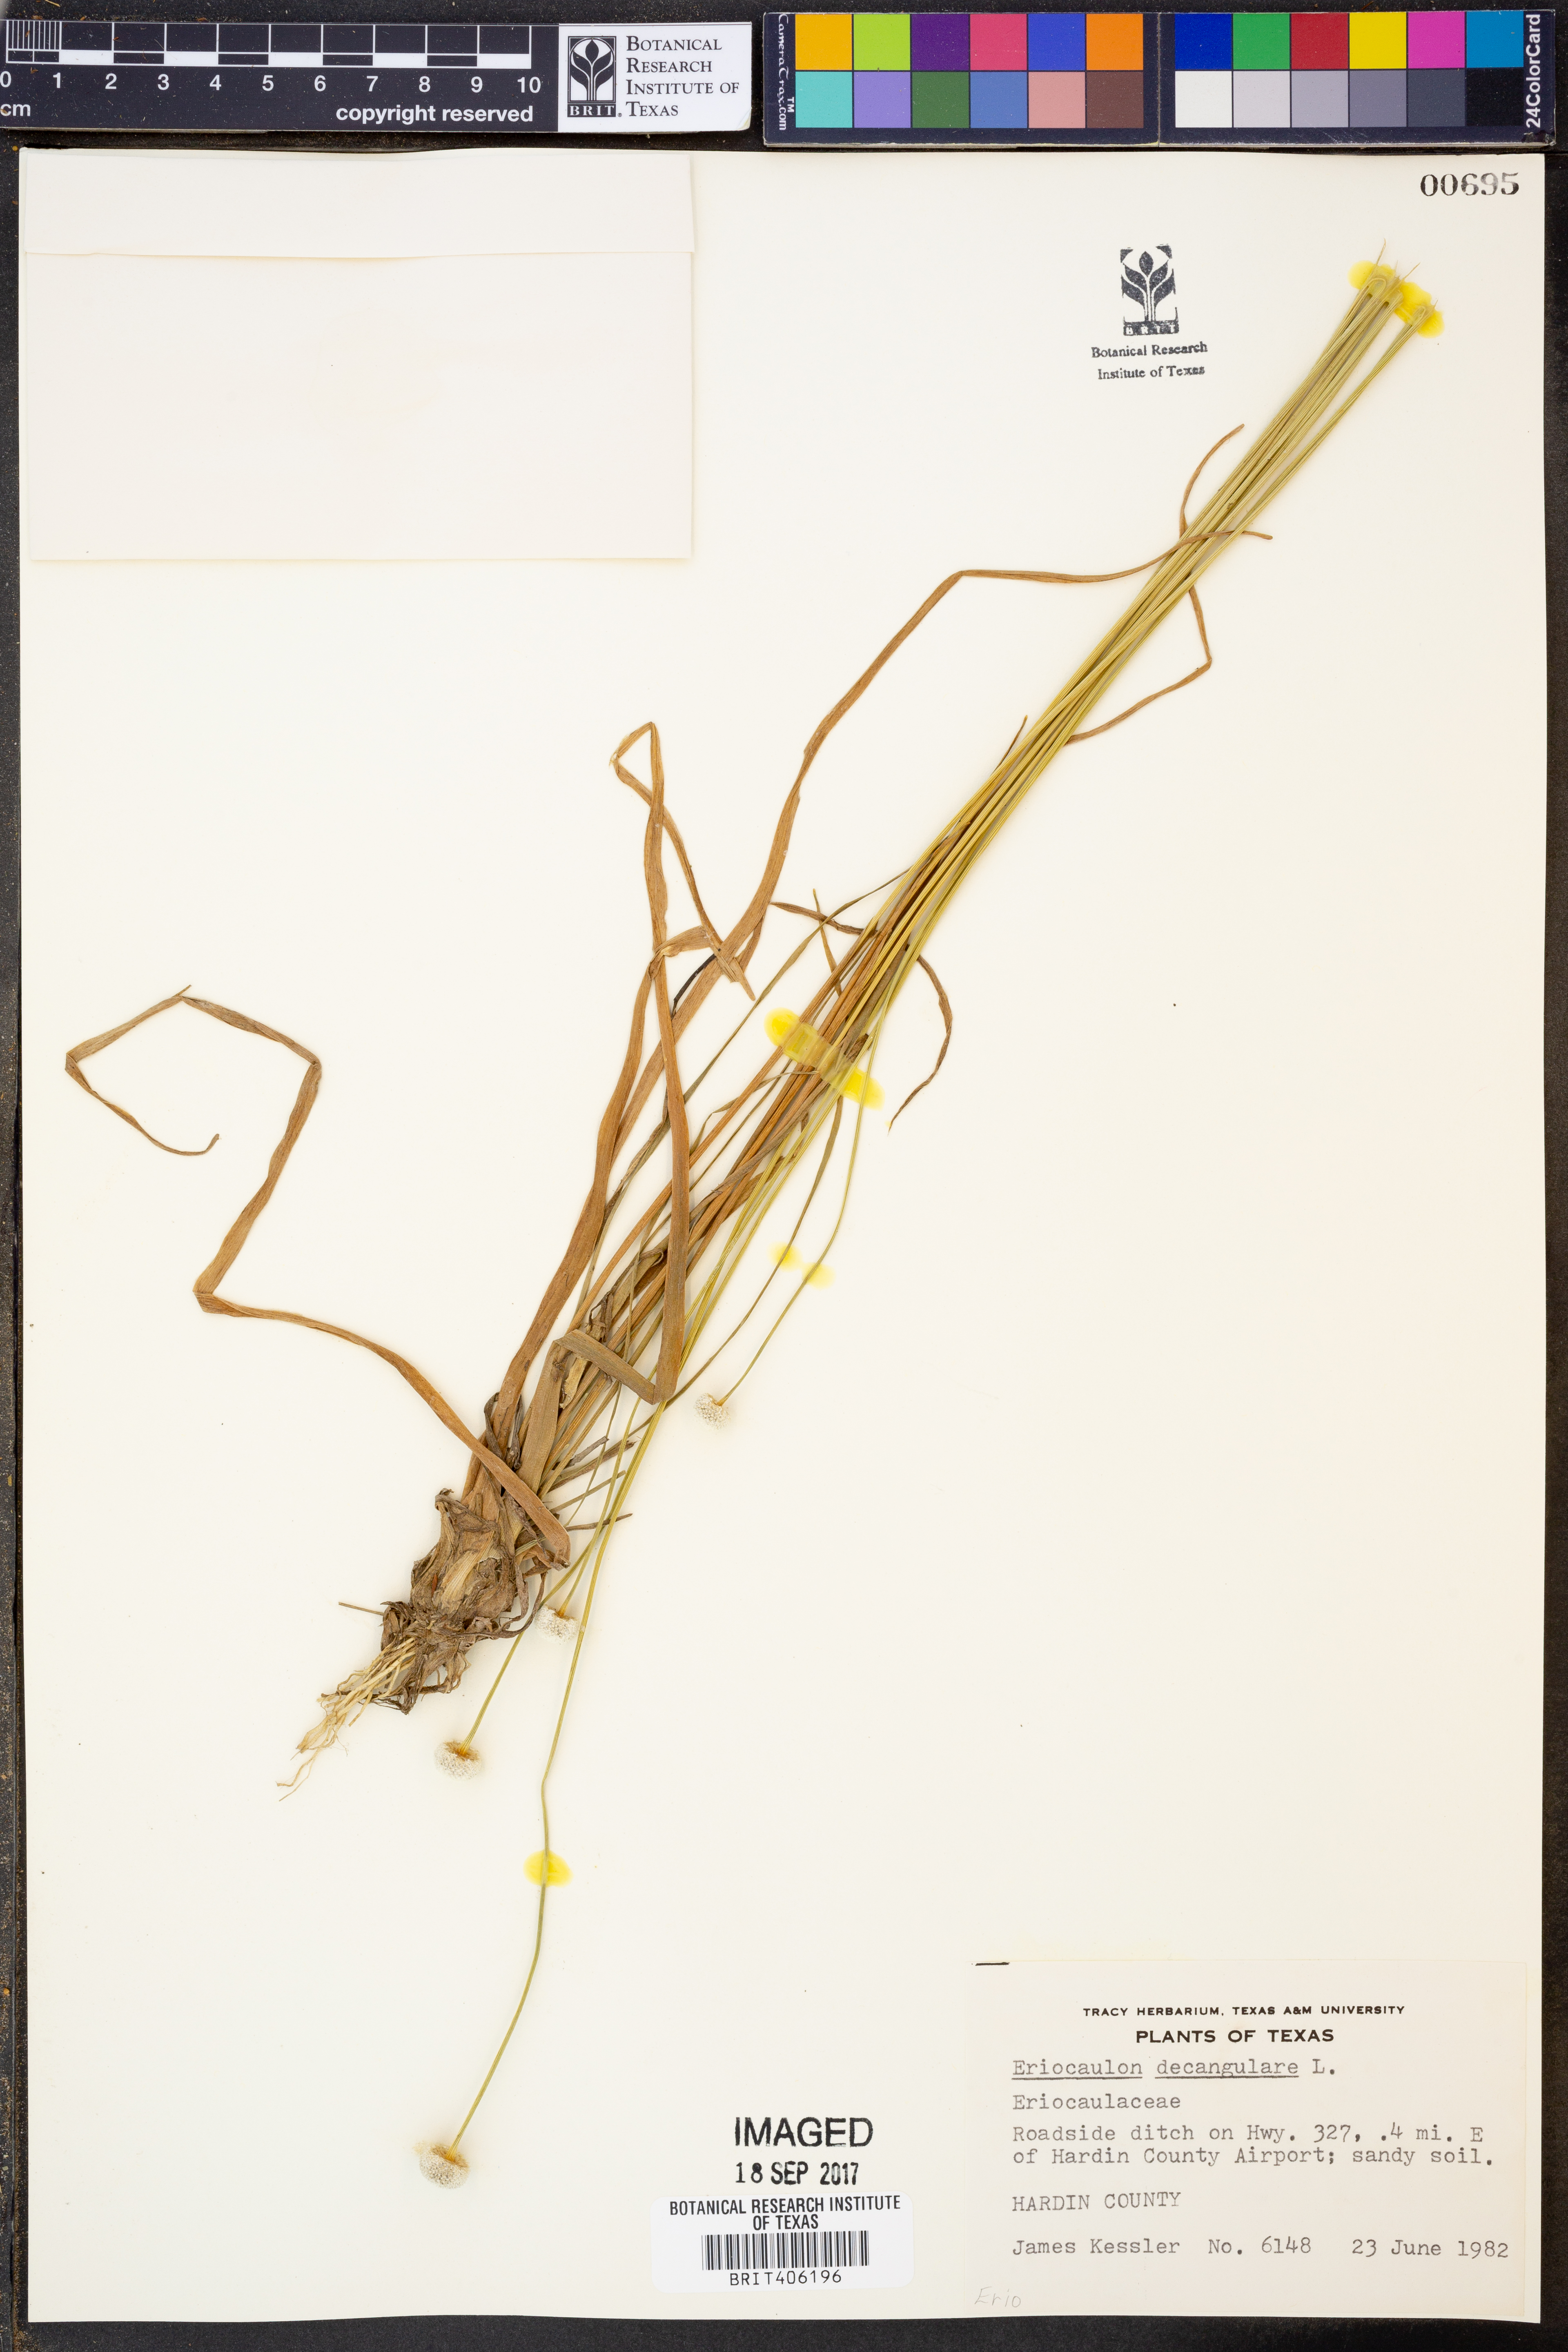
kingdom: Plantae
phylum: Tracheophyta
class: Liliopsida
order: Poales
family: Eriocaulaceae
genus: Eriocaulon
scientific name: Eriocaulon decangulare
